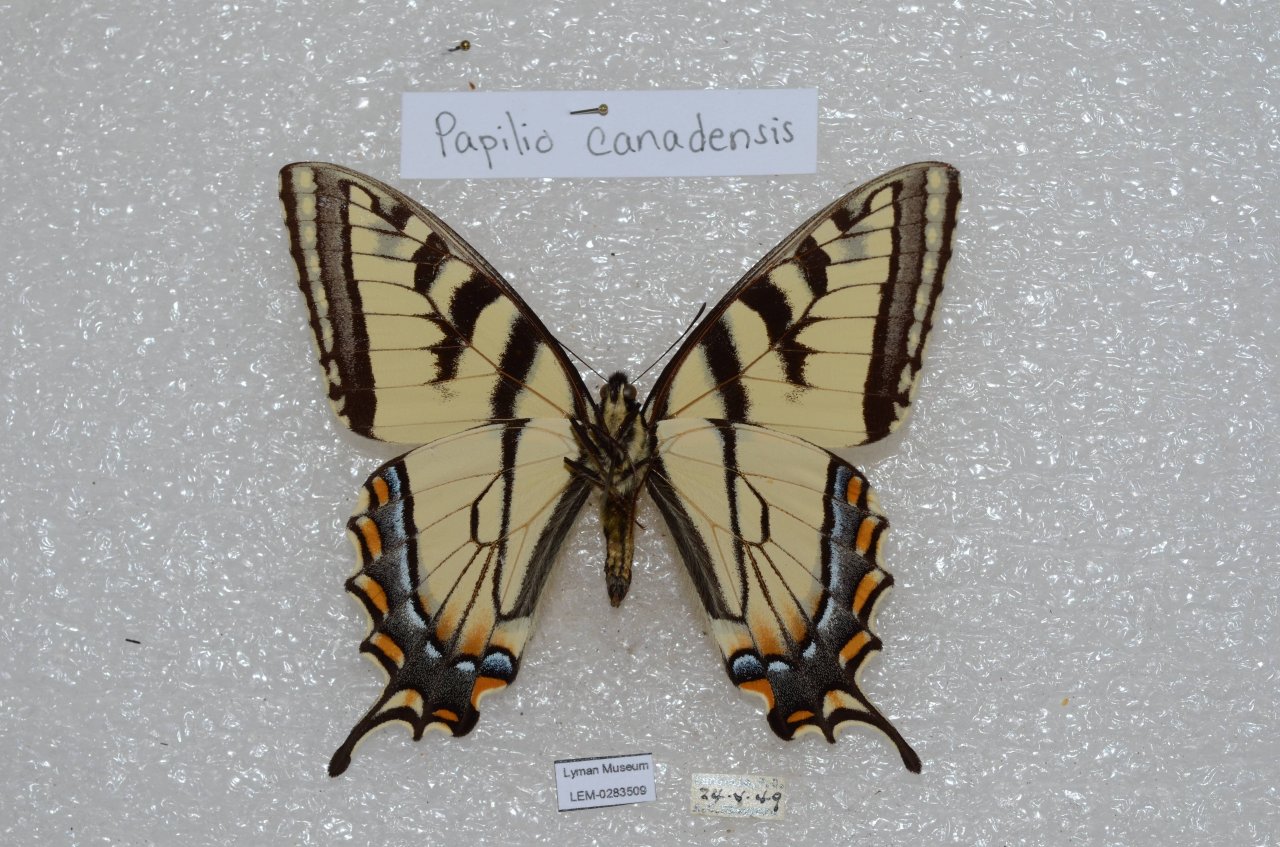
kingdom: Animalia
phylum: Arthropoda
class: Insecta
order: Lepidoptera
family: Papilionidae
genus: Pterourus
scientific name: Pterourus canadensis
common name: Canadian Tiger Swallowtail
